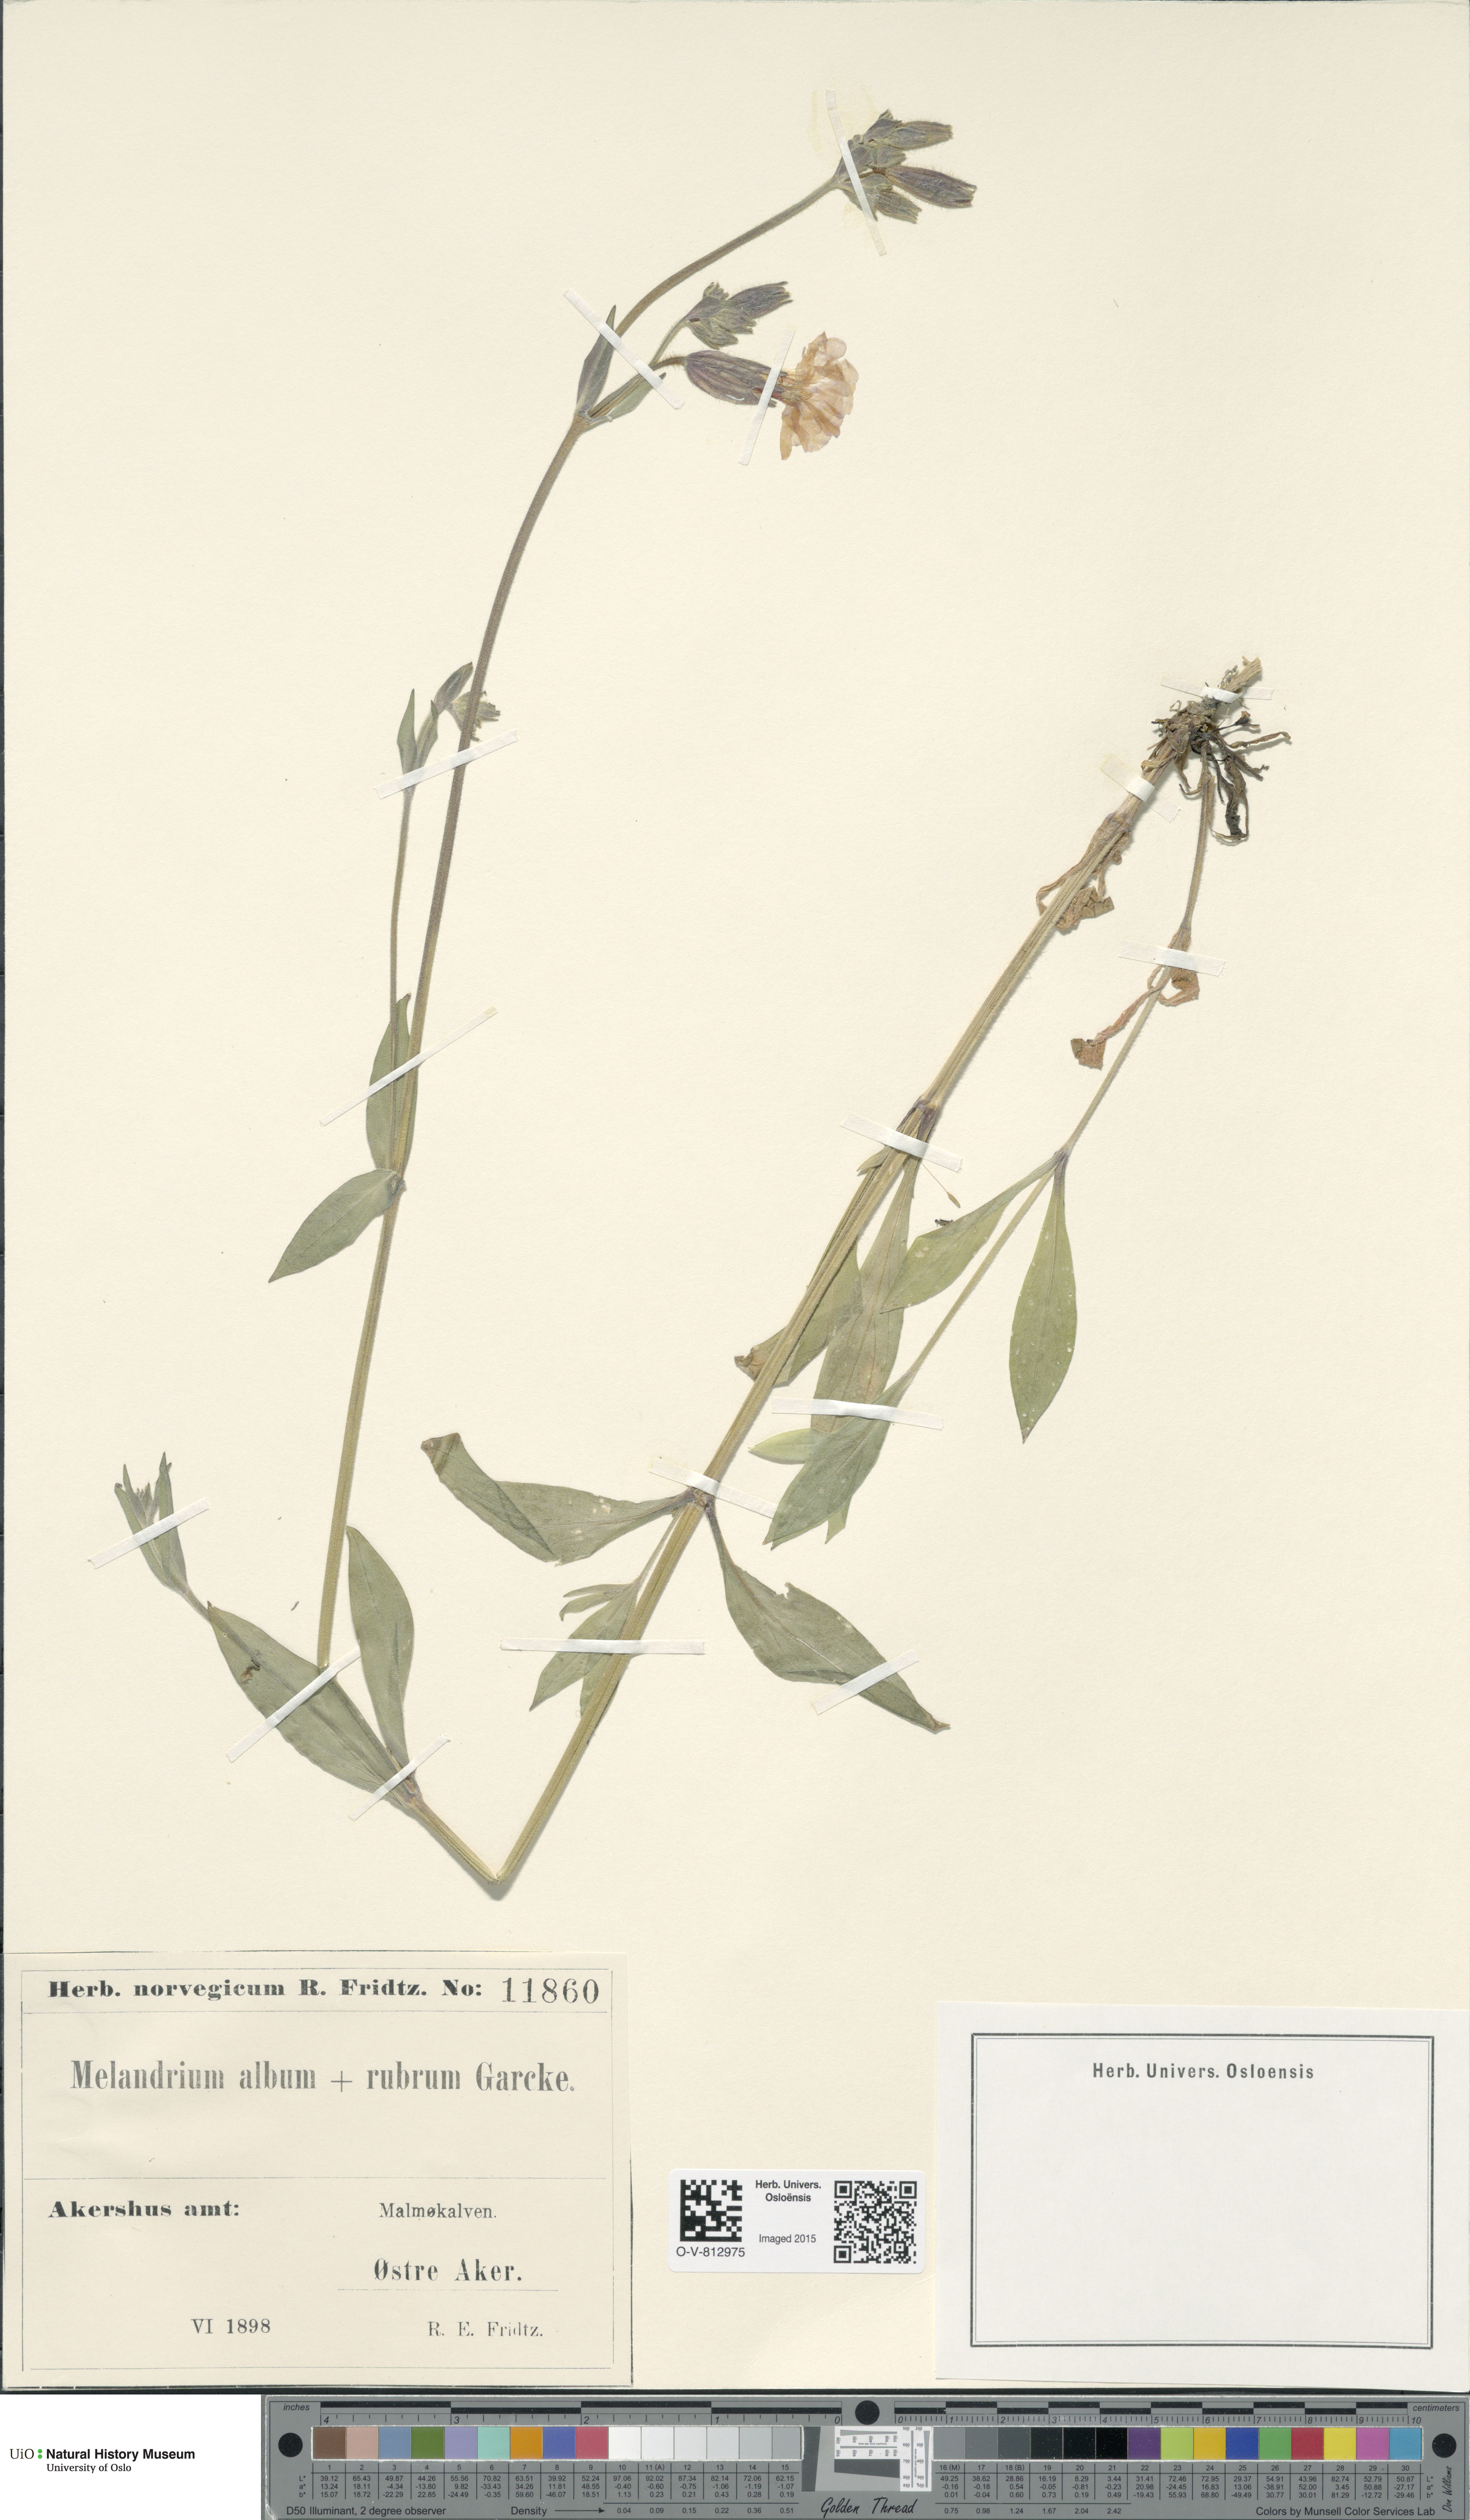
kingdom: Plantae
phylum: Tracheophyta
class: Magnoliopsida
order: Caryophyllales
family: Caryophyllaceae
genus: Silene
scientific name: Silene
